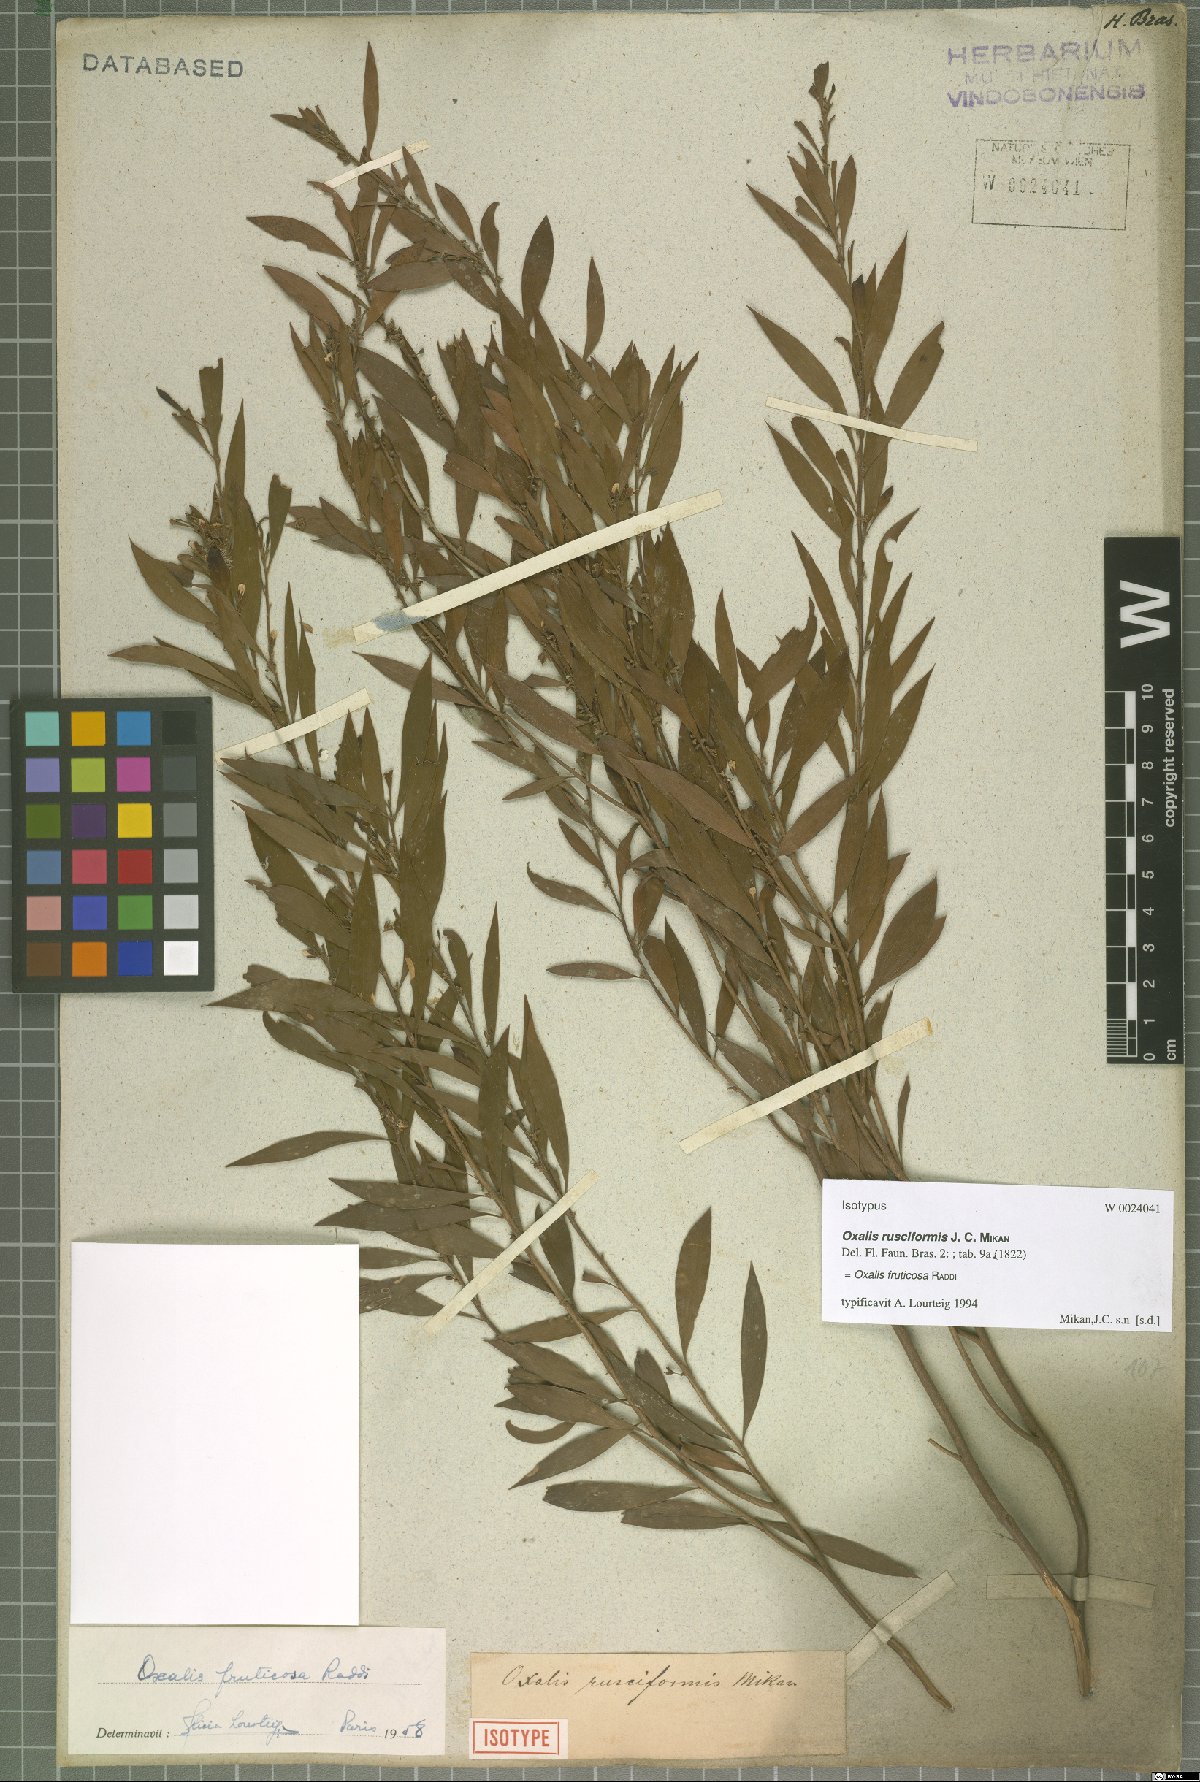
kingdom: Plantae
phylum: Tracheophyta
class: Magnoliopsida
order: Oxalidales
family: Oxalidaceae
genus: Oxalis
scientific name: Oxalis fruticosa
